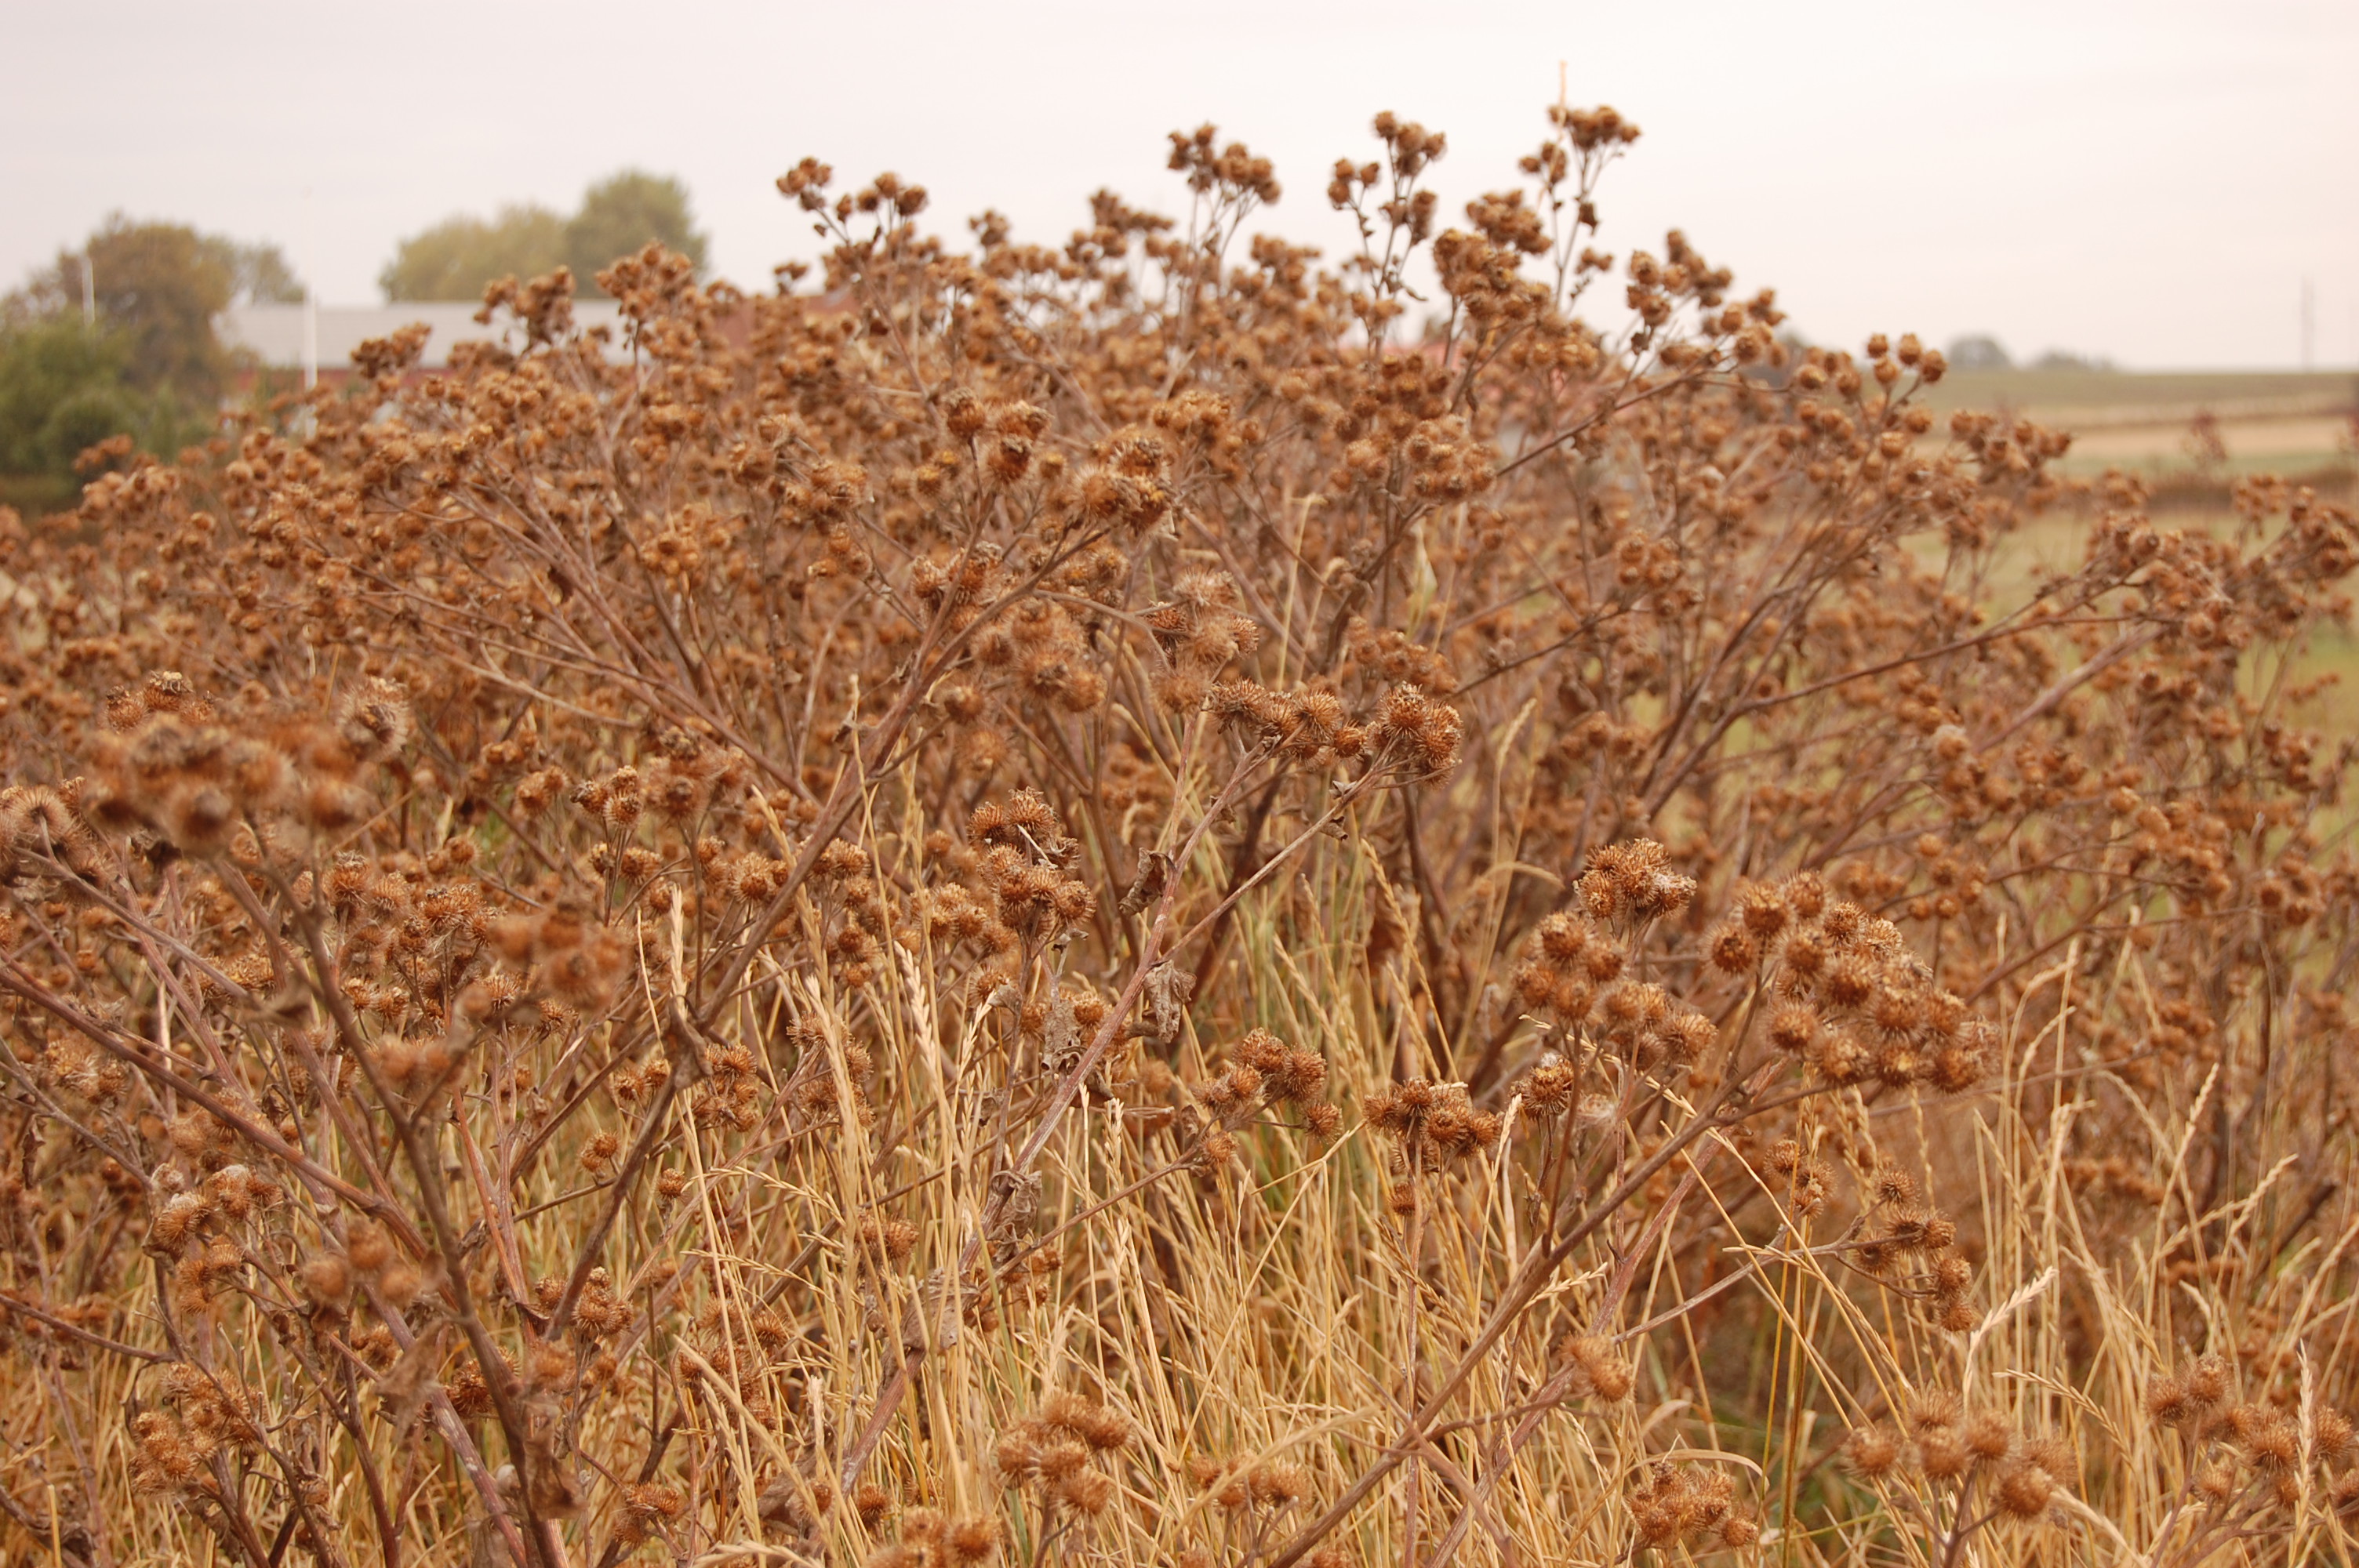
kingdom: Plantae
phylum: Tracheophyta
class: Magnoliopsida
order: Asterales
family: Asteraceae
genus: Arctium
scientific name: Arctium lappa
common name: Greater burdock
